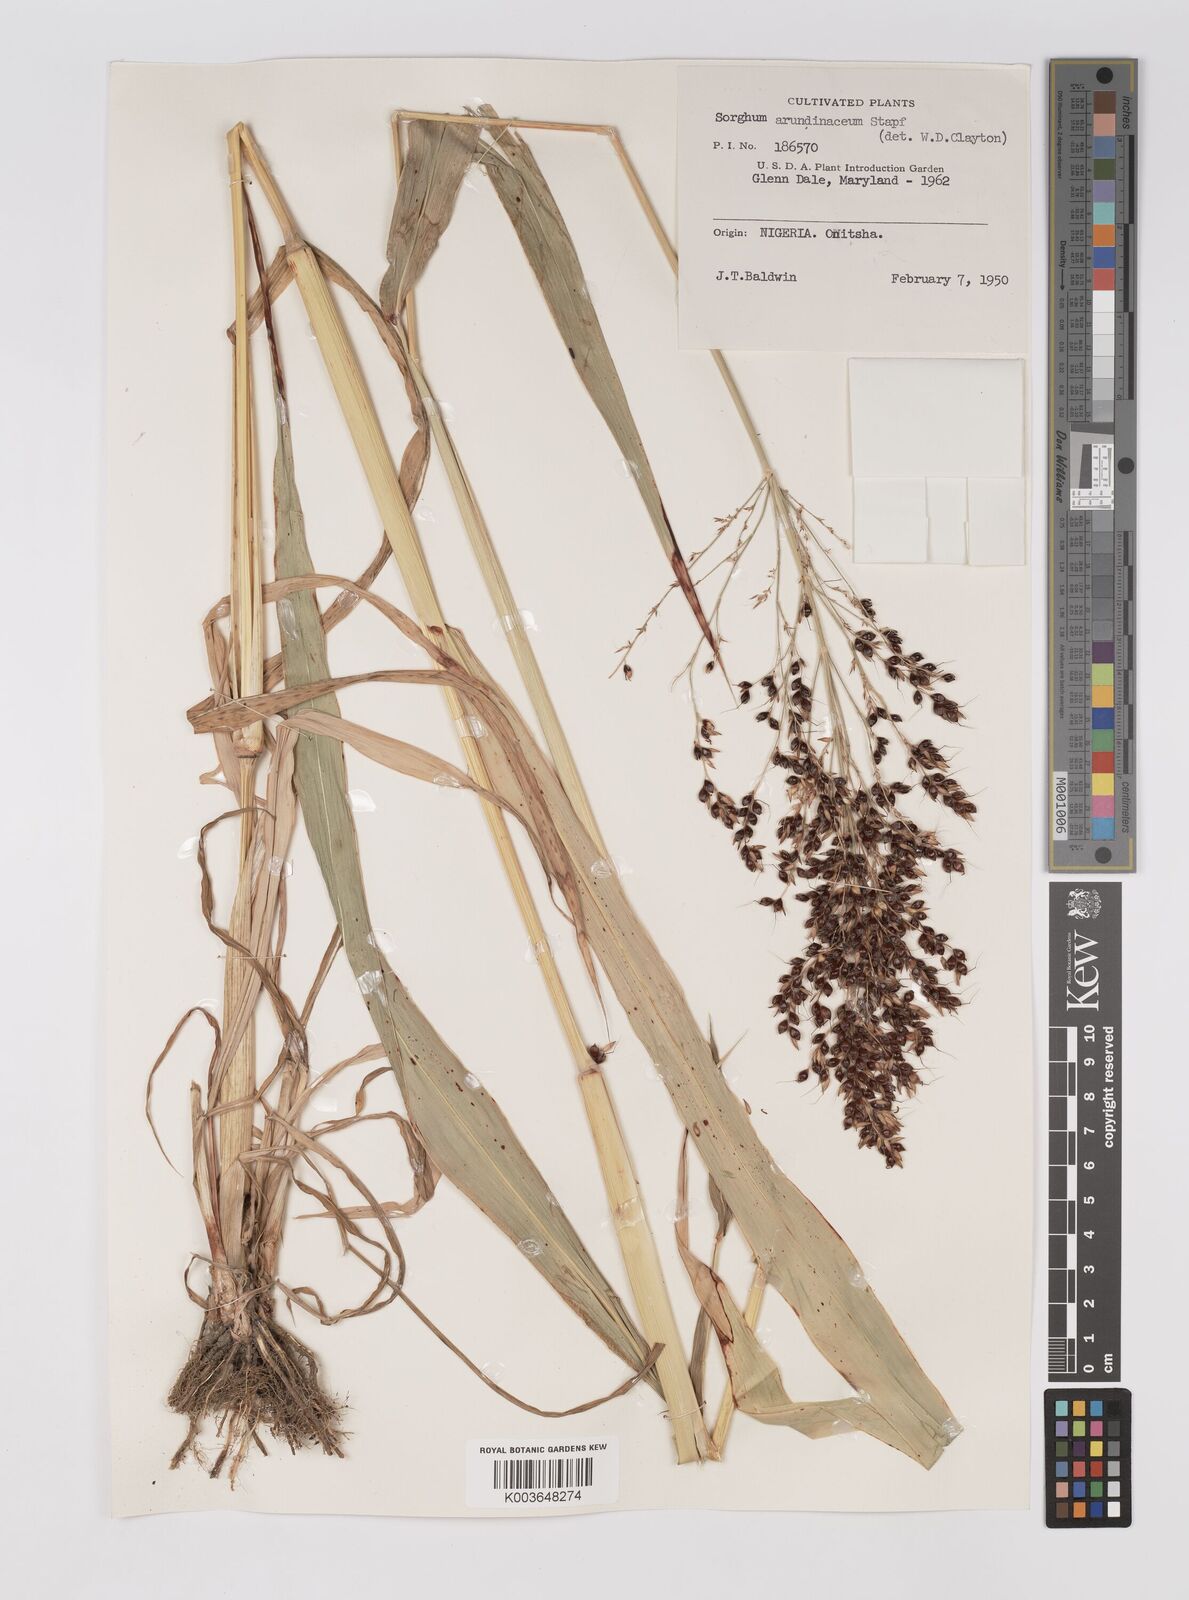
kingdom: Plantae
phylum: Tracheophyta
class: Liliopsida
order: Poales
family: Poaceae
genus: Sorghum
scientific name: Sorghum drummondii
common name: Sudangrass
